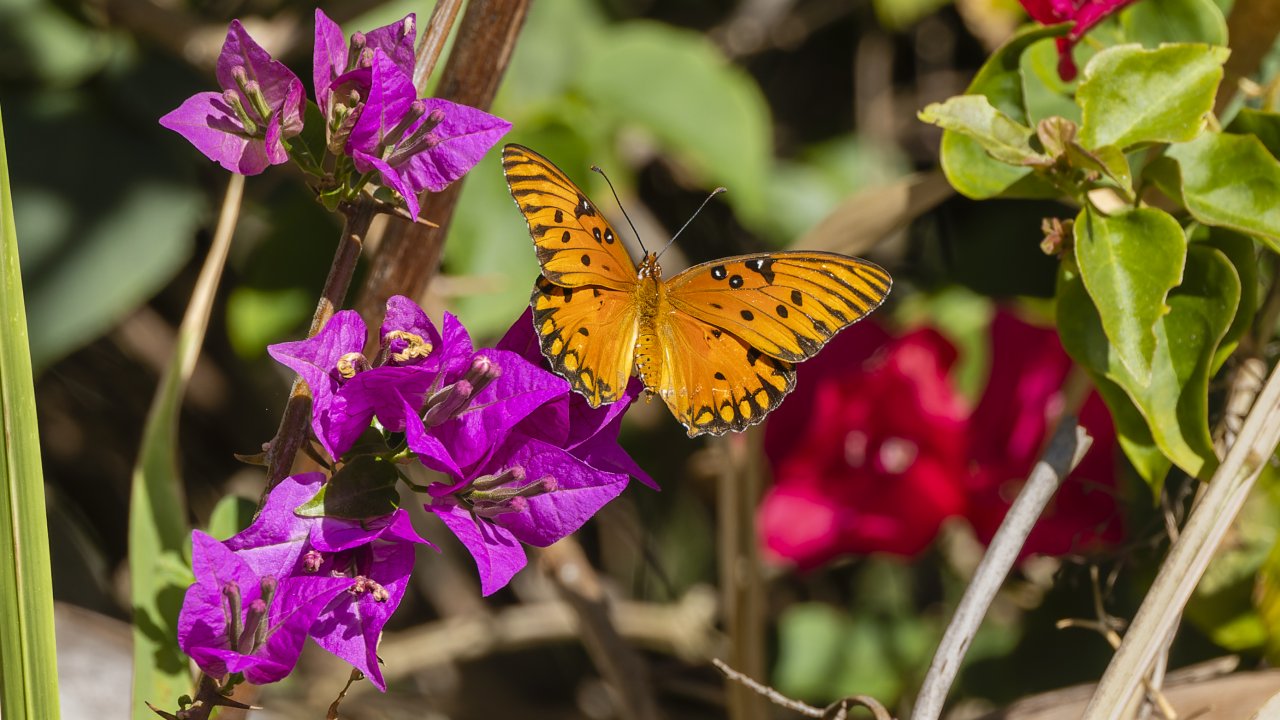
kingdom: Animalia
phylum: Arthropoda
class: Insecta
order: Lepidoptera
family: Nymphalidae
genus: Dione
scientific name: Dione vanillae
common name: Gulf Fritillary
